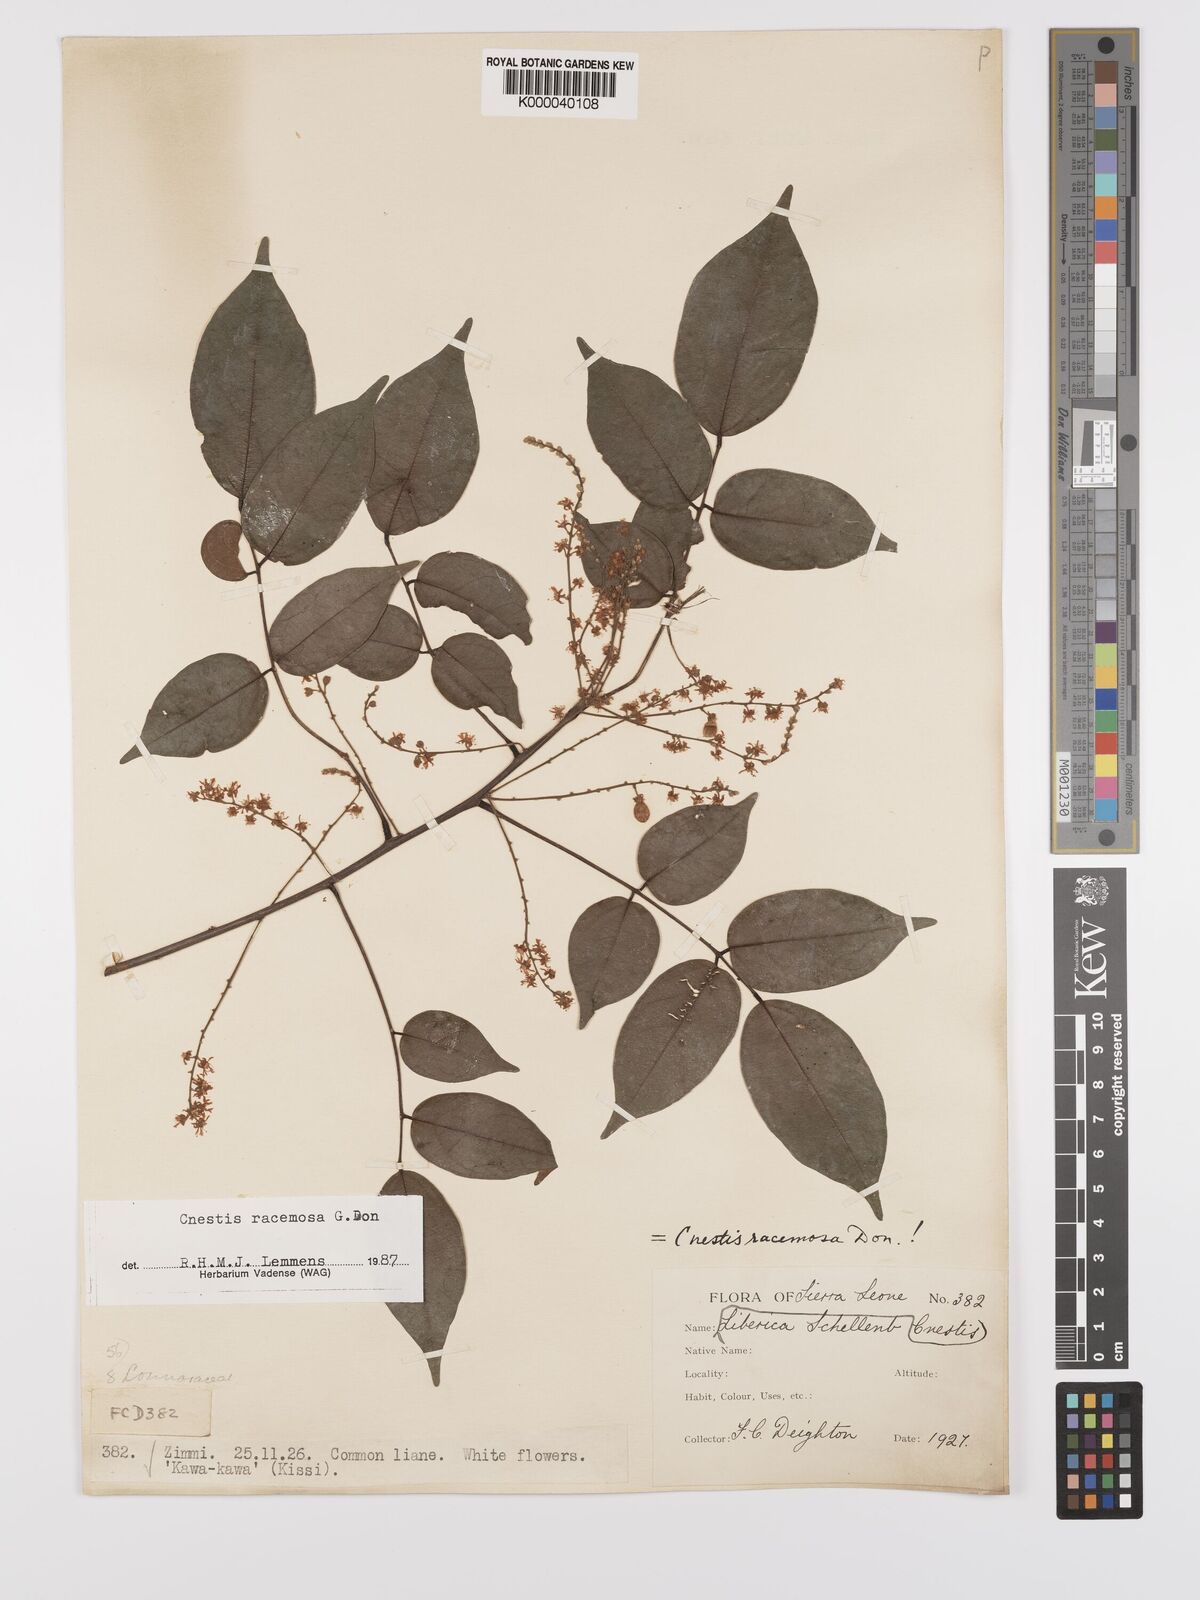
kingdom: Plantae
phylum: Tracheophyta
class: Magnoliopsida
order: Oxalidales
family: Connaraceae
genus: Cnestis
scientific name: Cnestis racemosa
